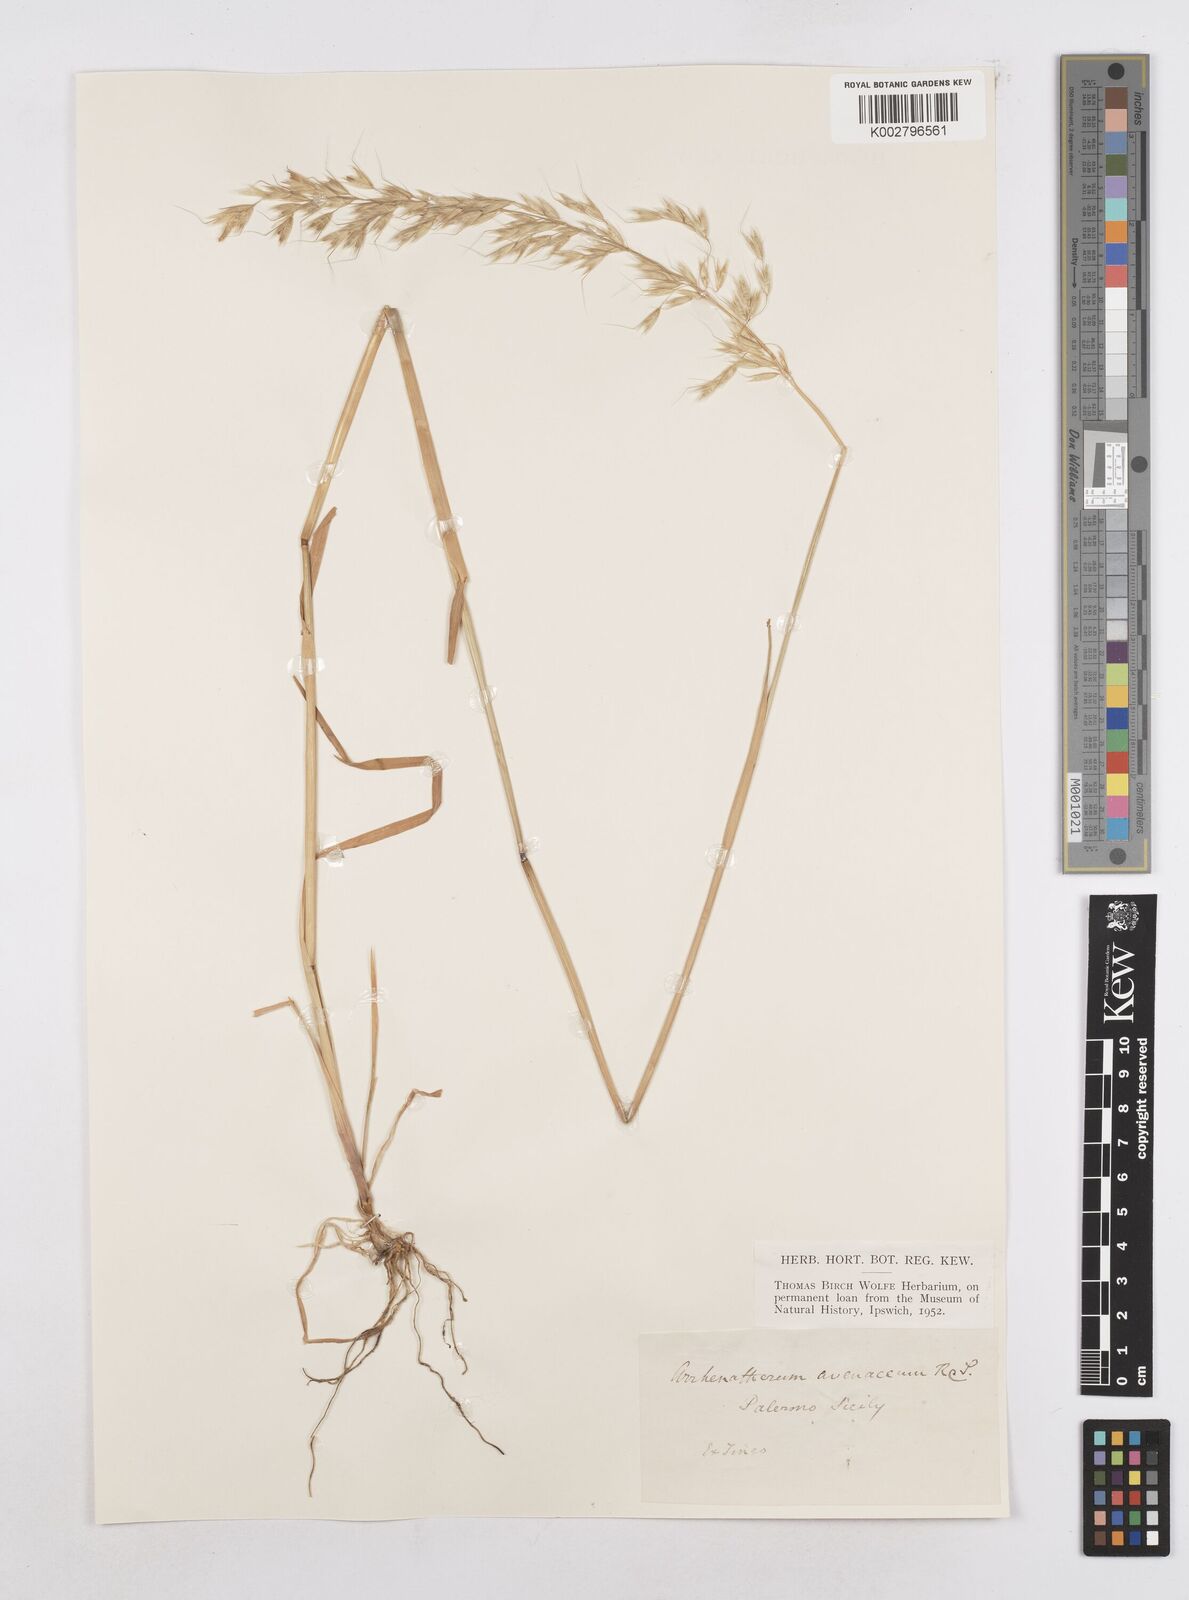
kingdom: Plantae
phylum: Tracheophyta
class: Liliopsida
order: Poales
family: Poaceae
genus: Arrhenatherum
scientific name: Arrhenatherum elatius
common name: Tall oatgrass
